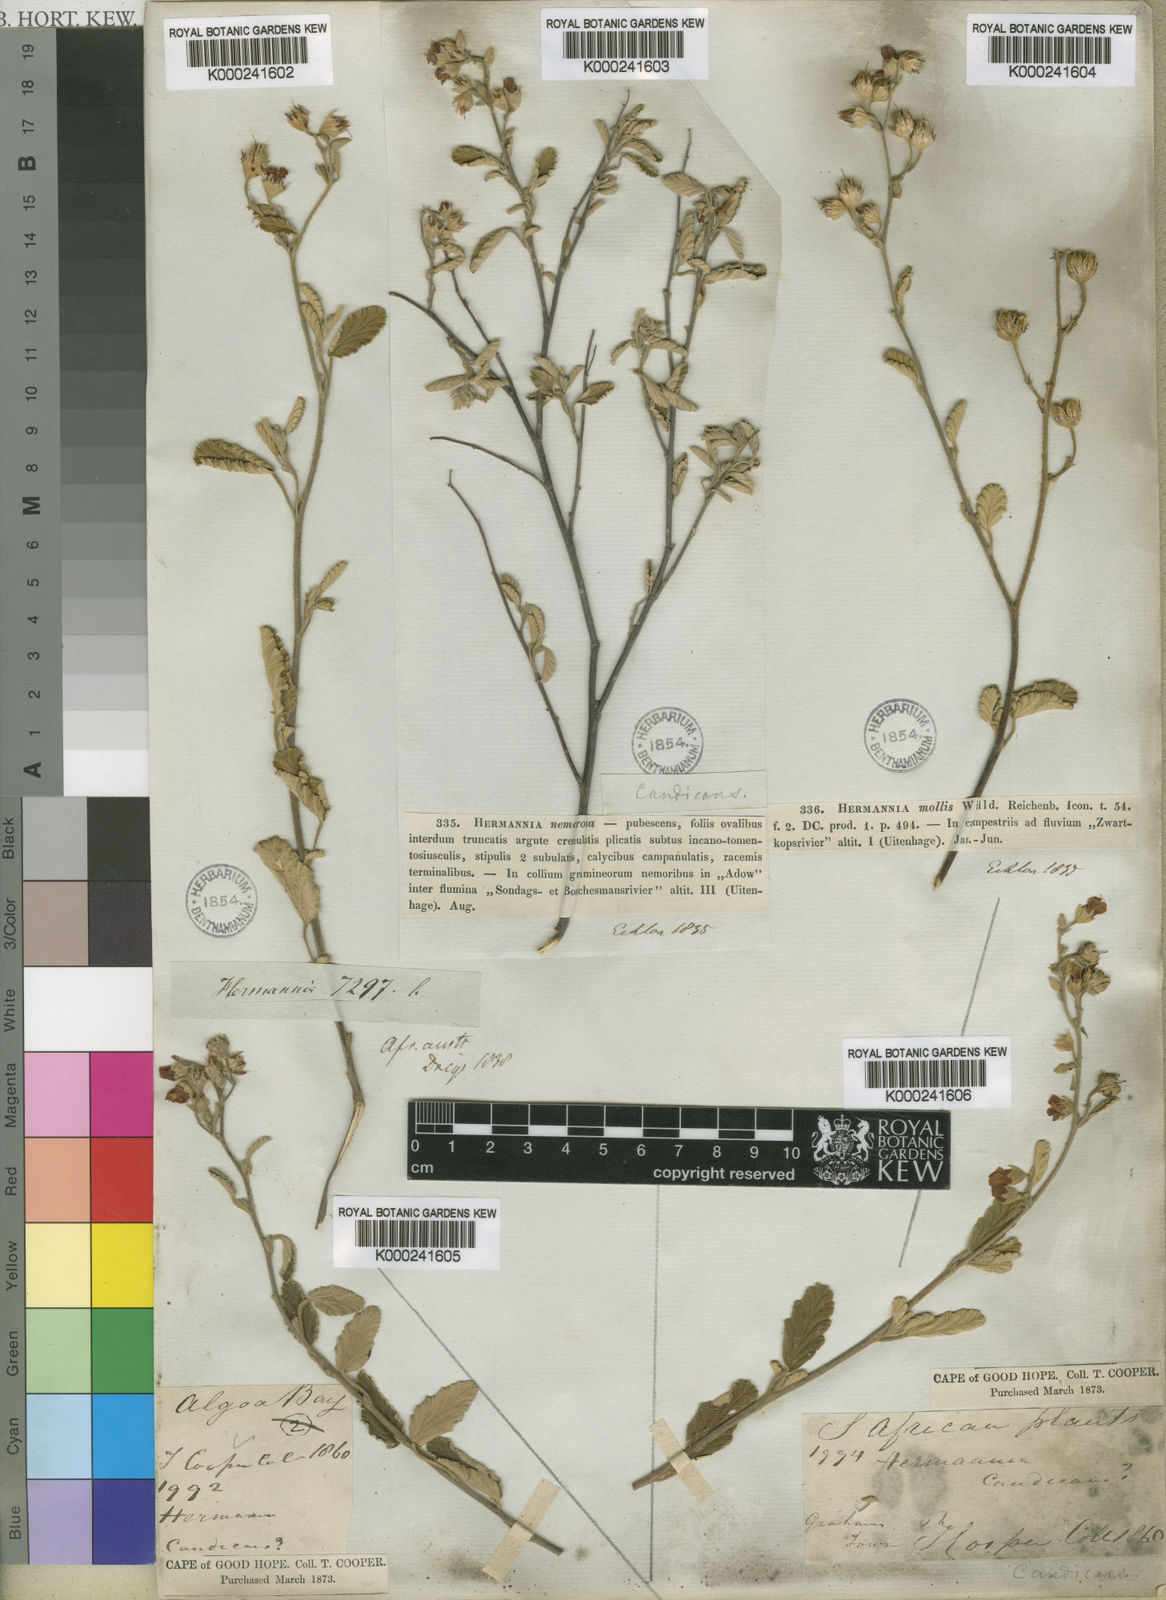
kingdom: Plantae
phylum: Tracheophyta
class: Magnoliopsida
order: Malvales
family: Malvaceae
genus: Hermannia
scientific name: Hermannia incana
